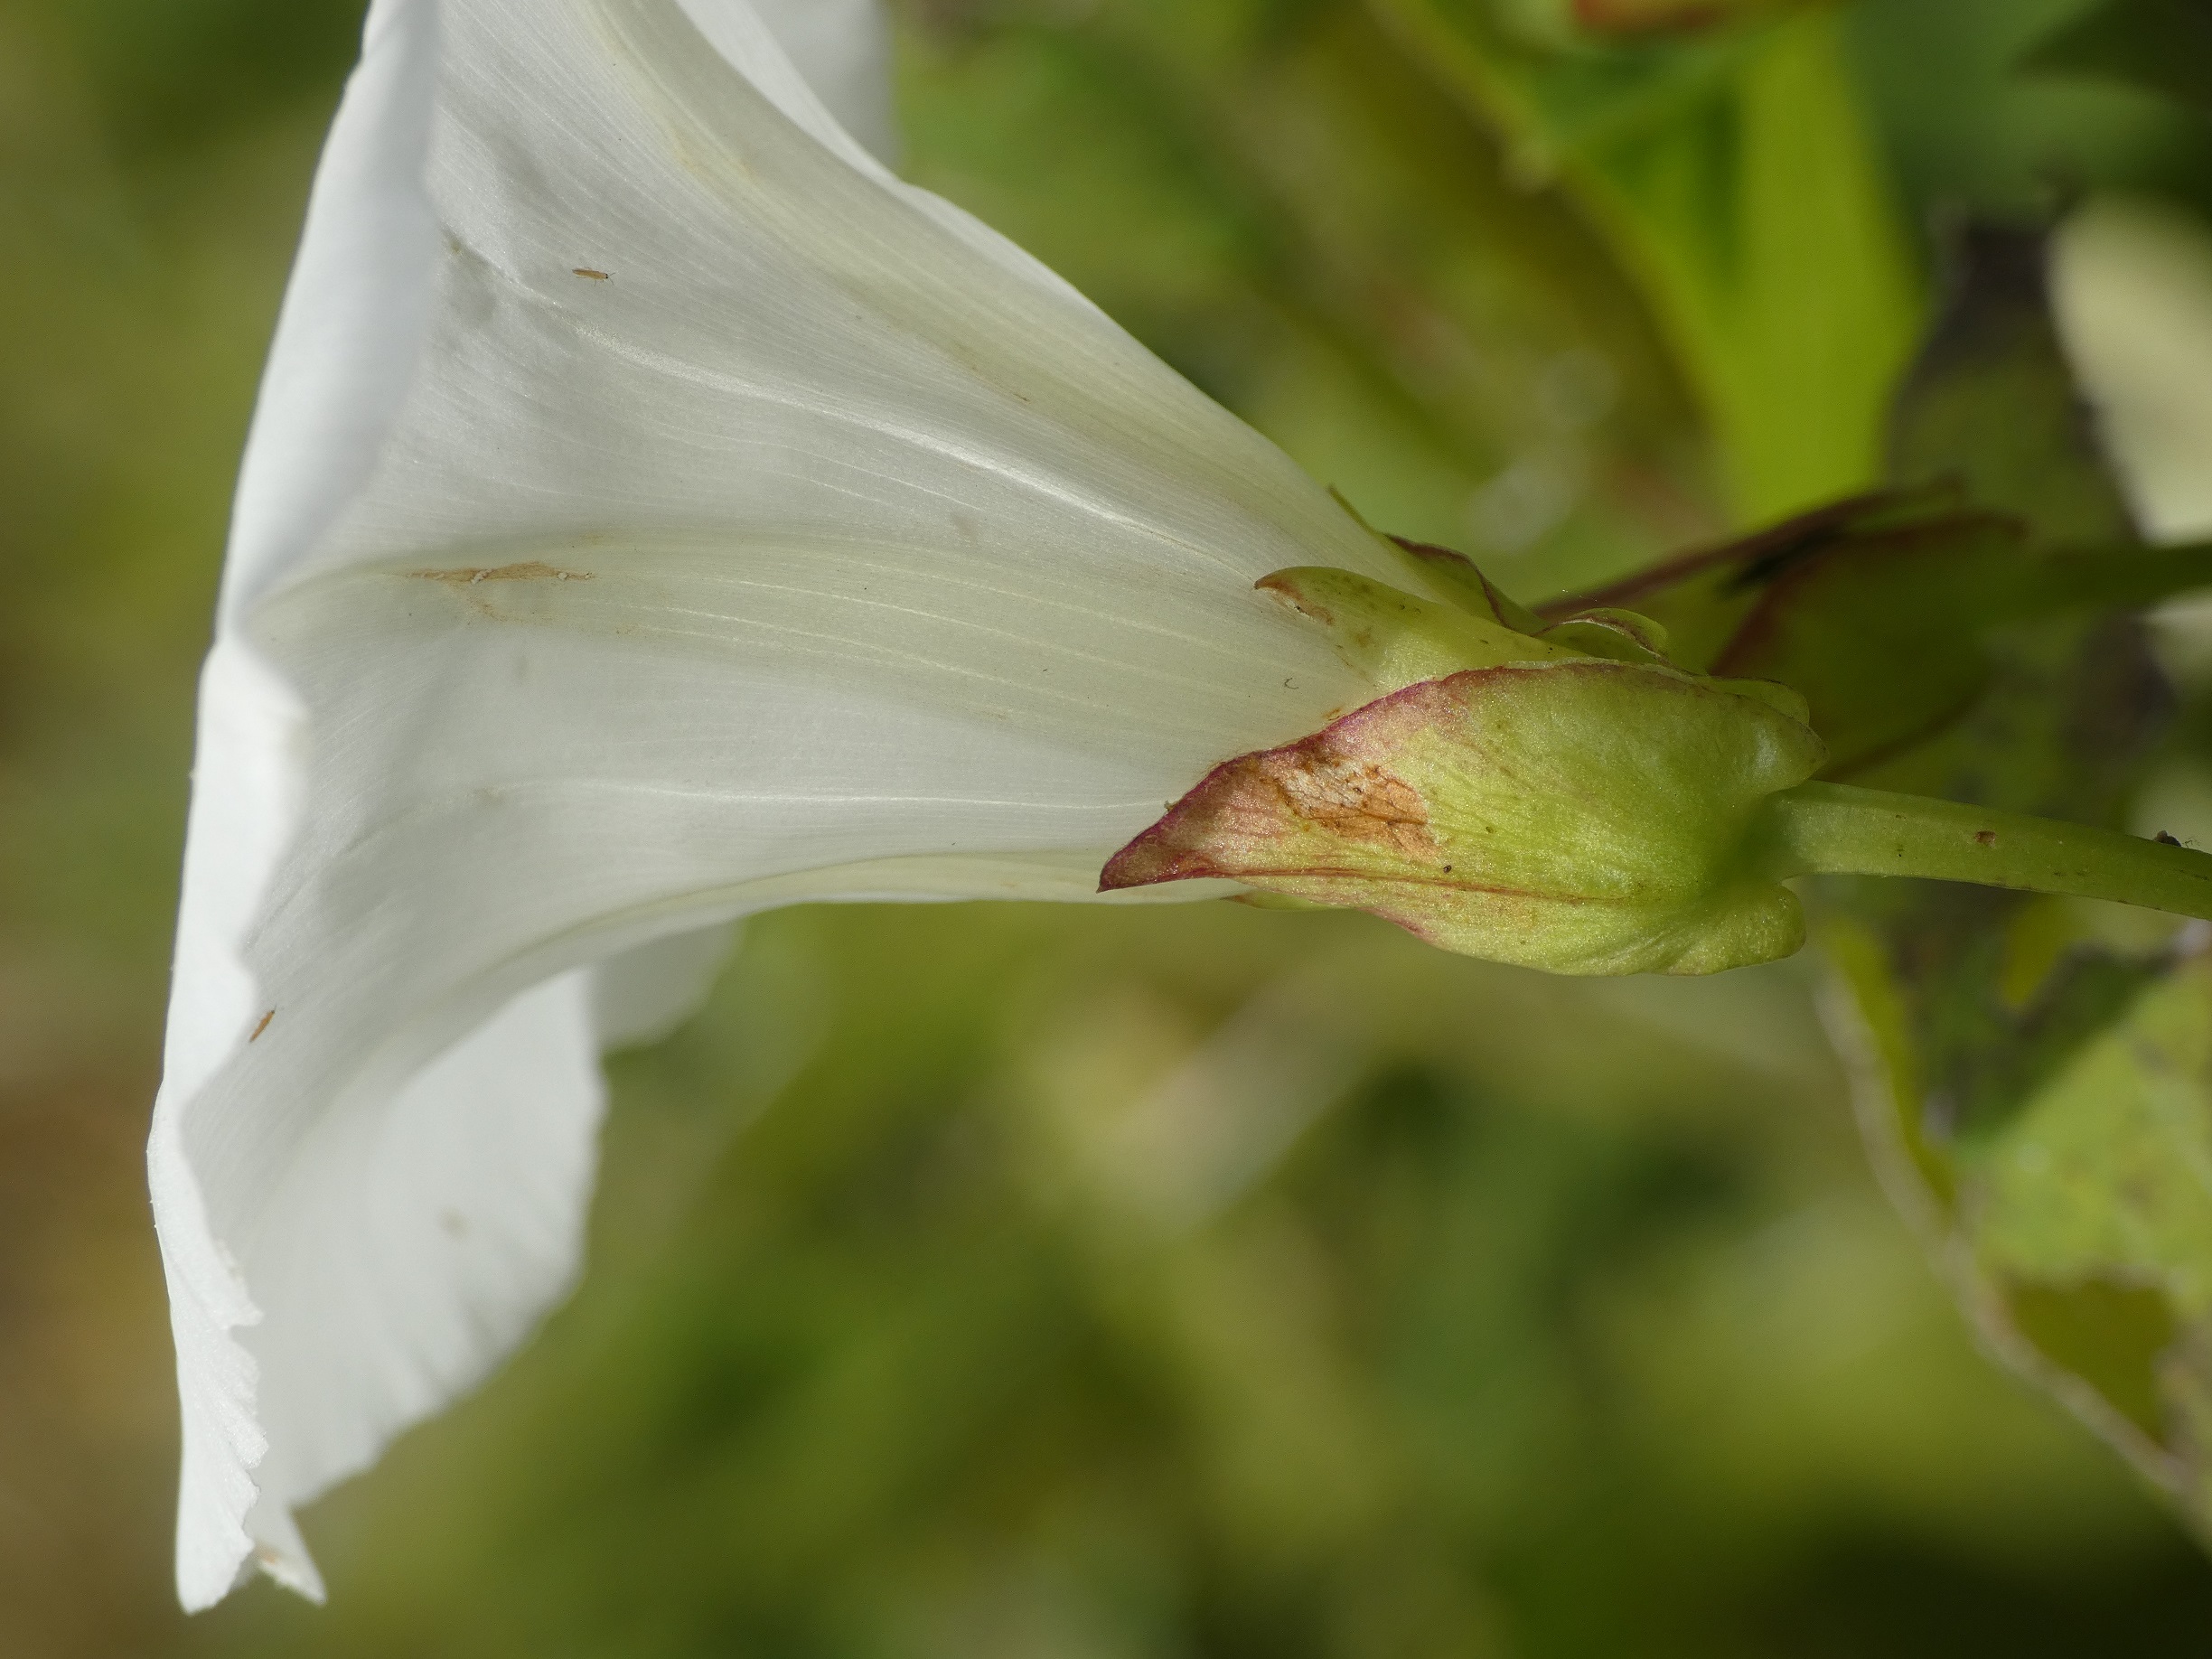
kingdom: Plantae
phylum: Tracheophyta
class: Magnoliopsida
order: Solanales
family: Convolvulaceae
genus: Calystegia
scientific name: Calystegia sepium
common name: Gærde-snerle
